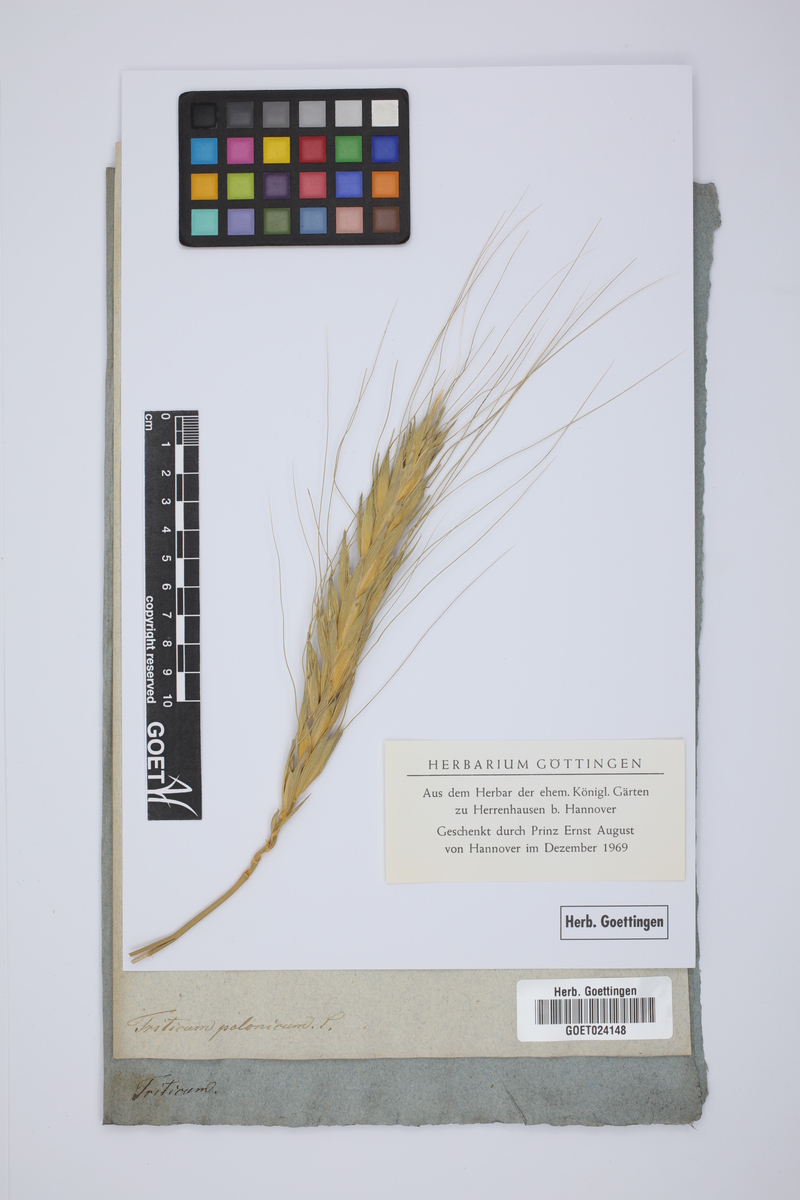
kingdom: Plantae
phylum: Tracheophyta
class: Liliopsida
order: Poales
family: Poaceae
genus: Triticum
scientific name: Triticum turgidum
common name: Rivet wheat
